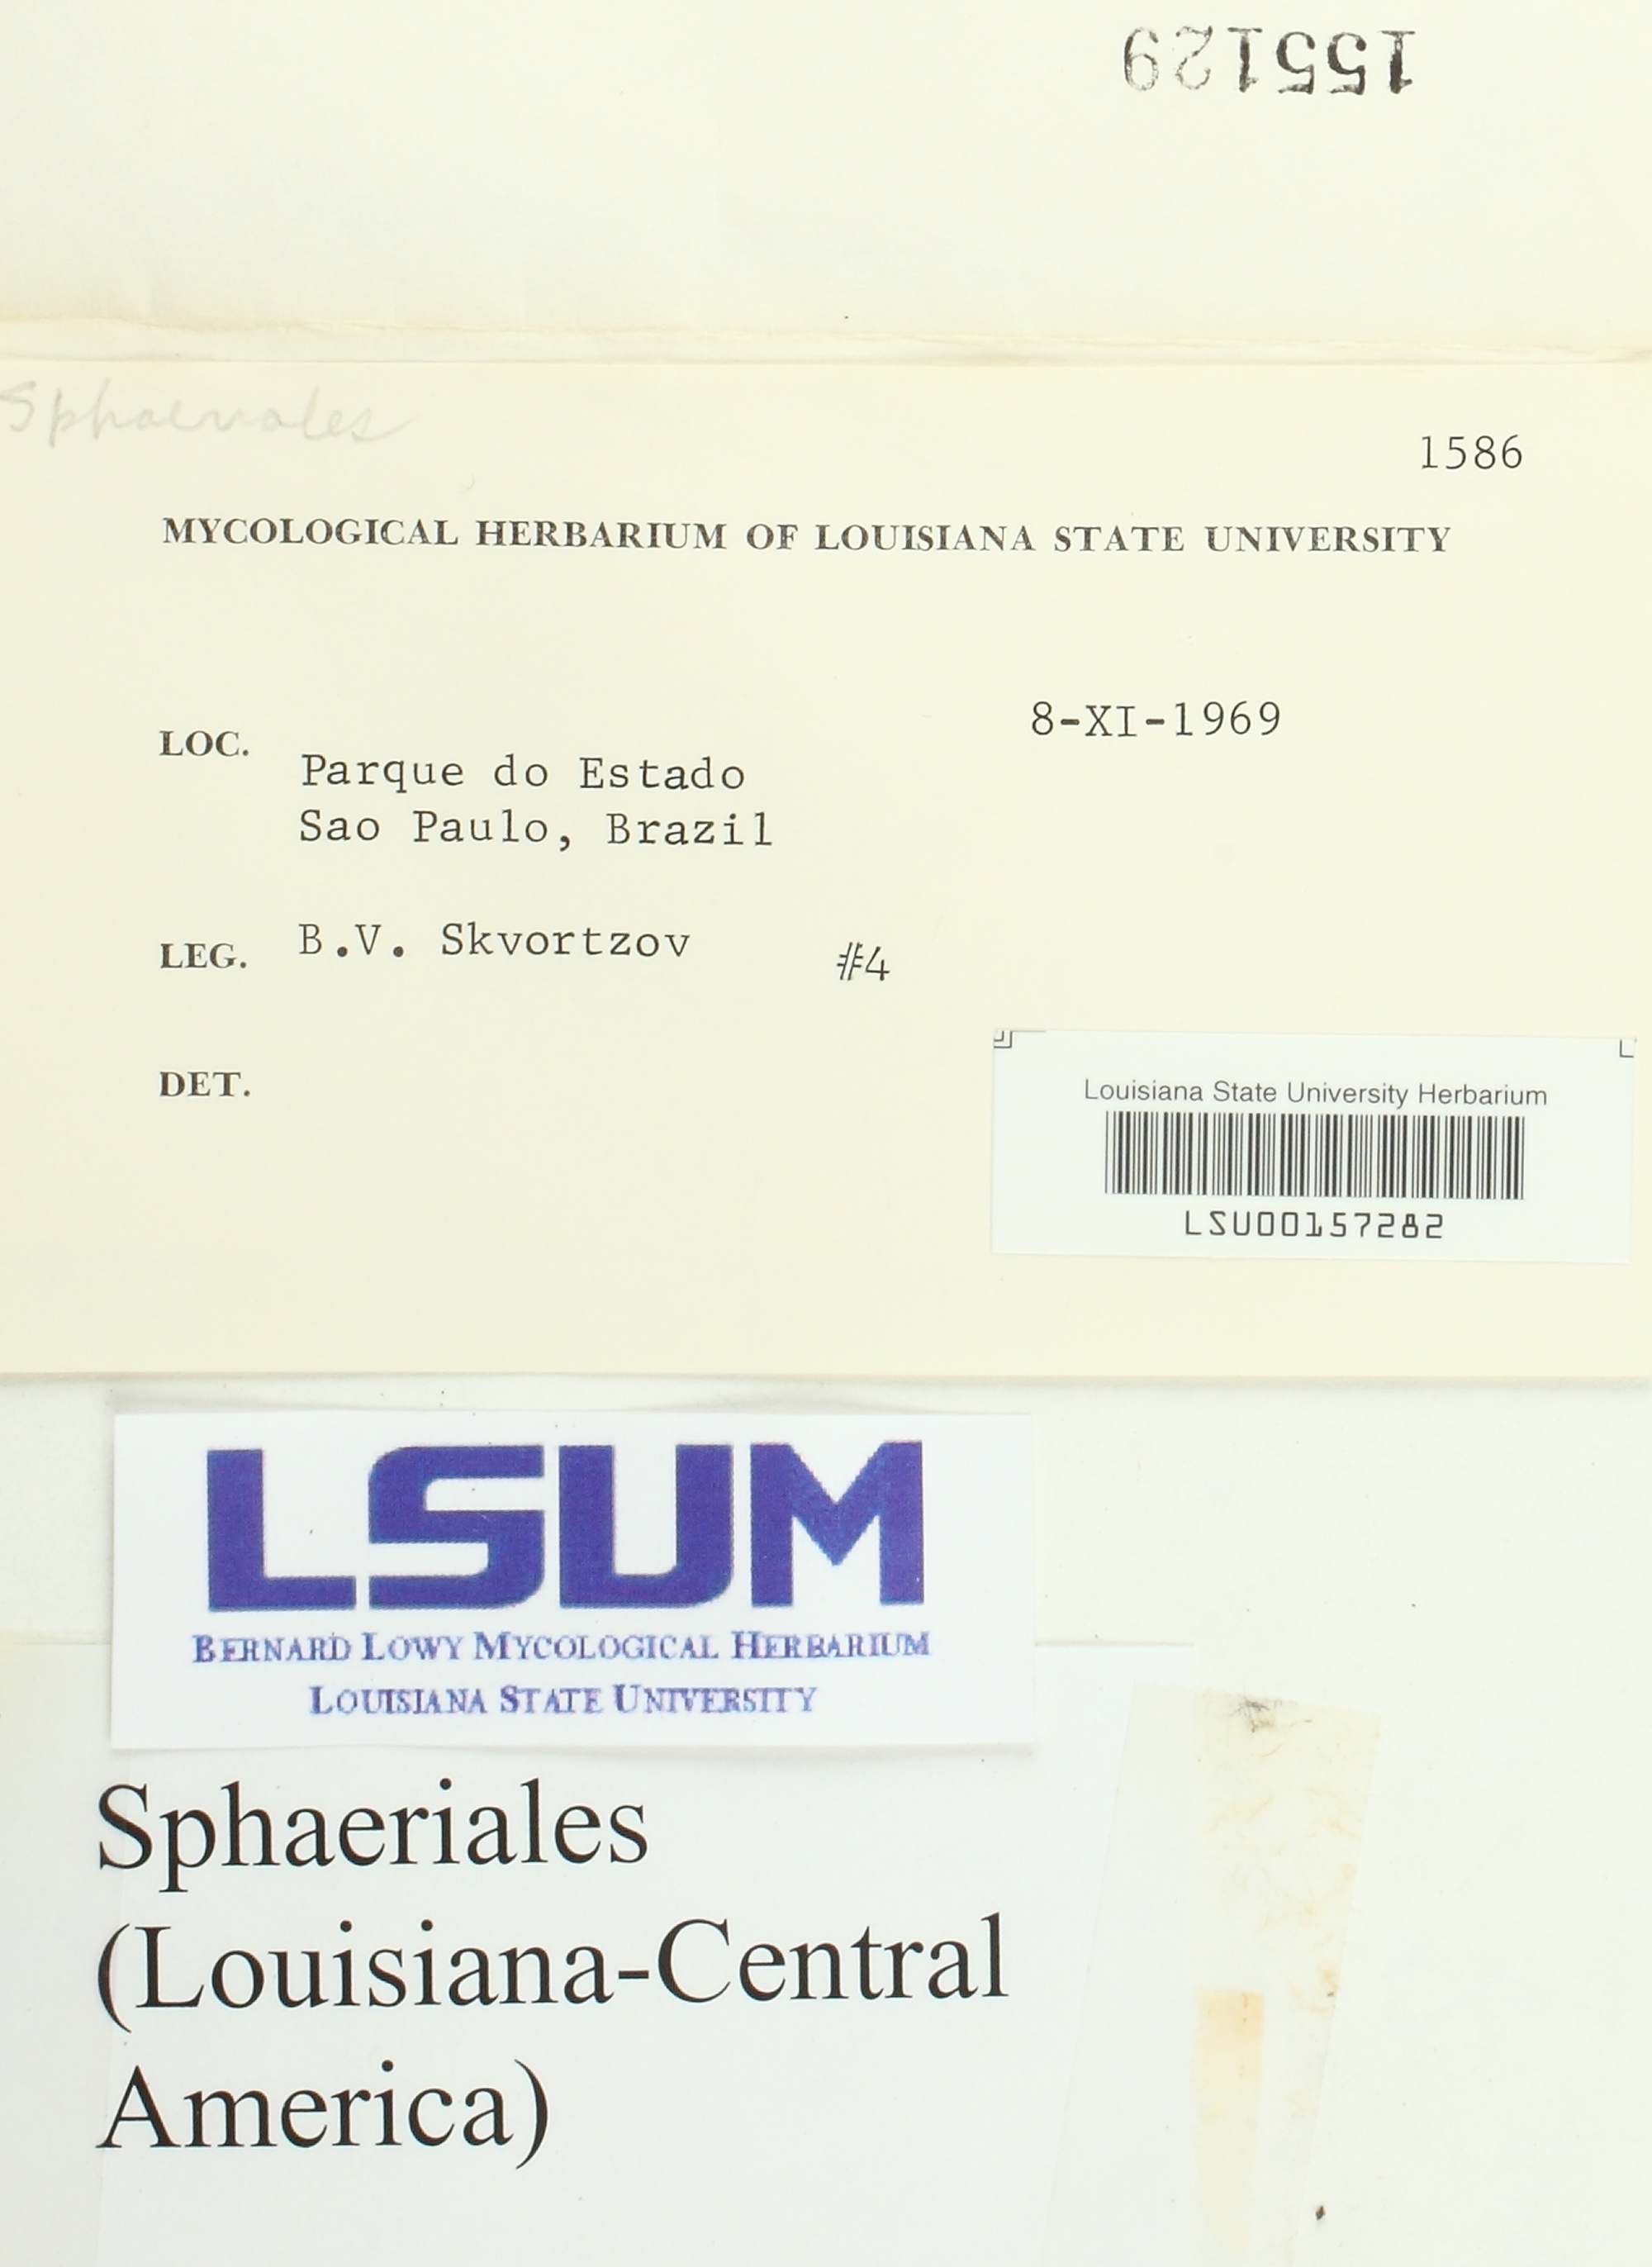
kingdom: Fungi
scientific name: Fungi
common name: Fungi
